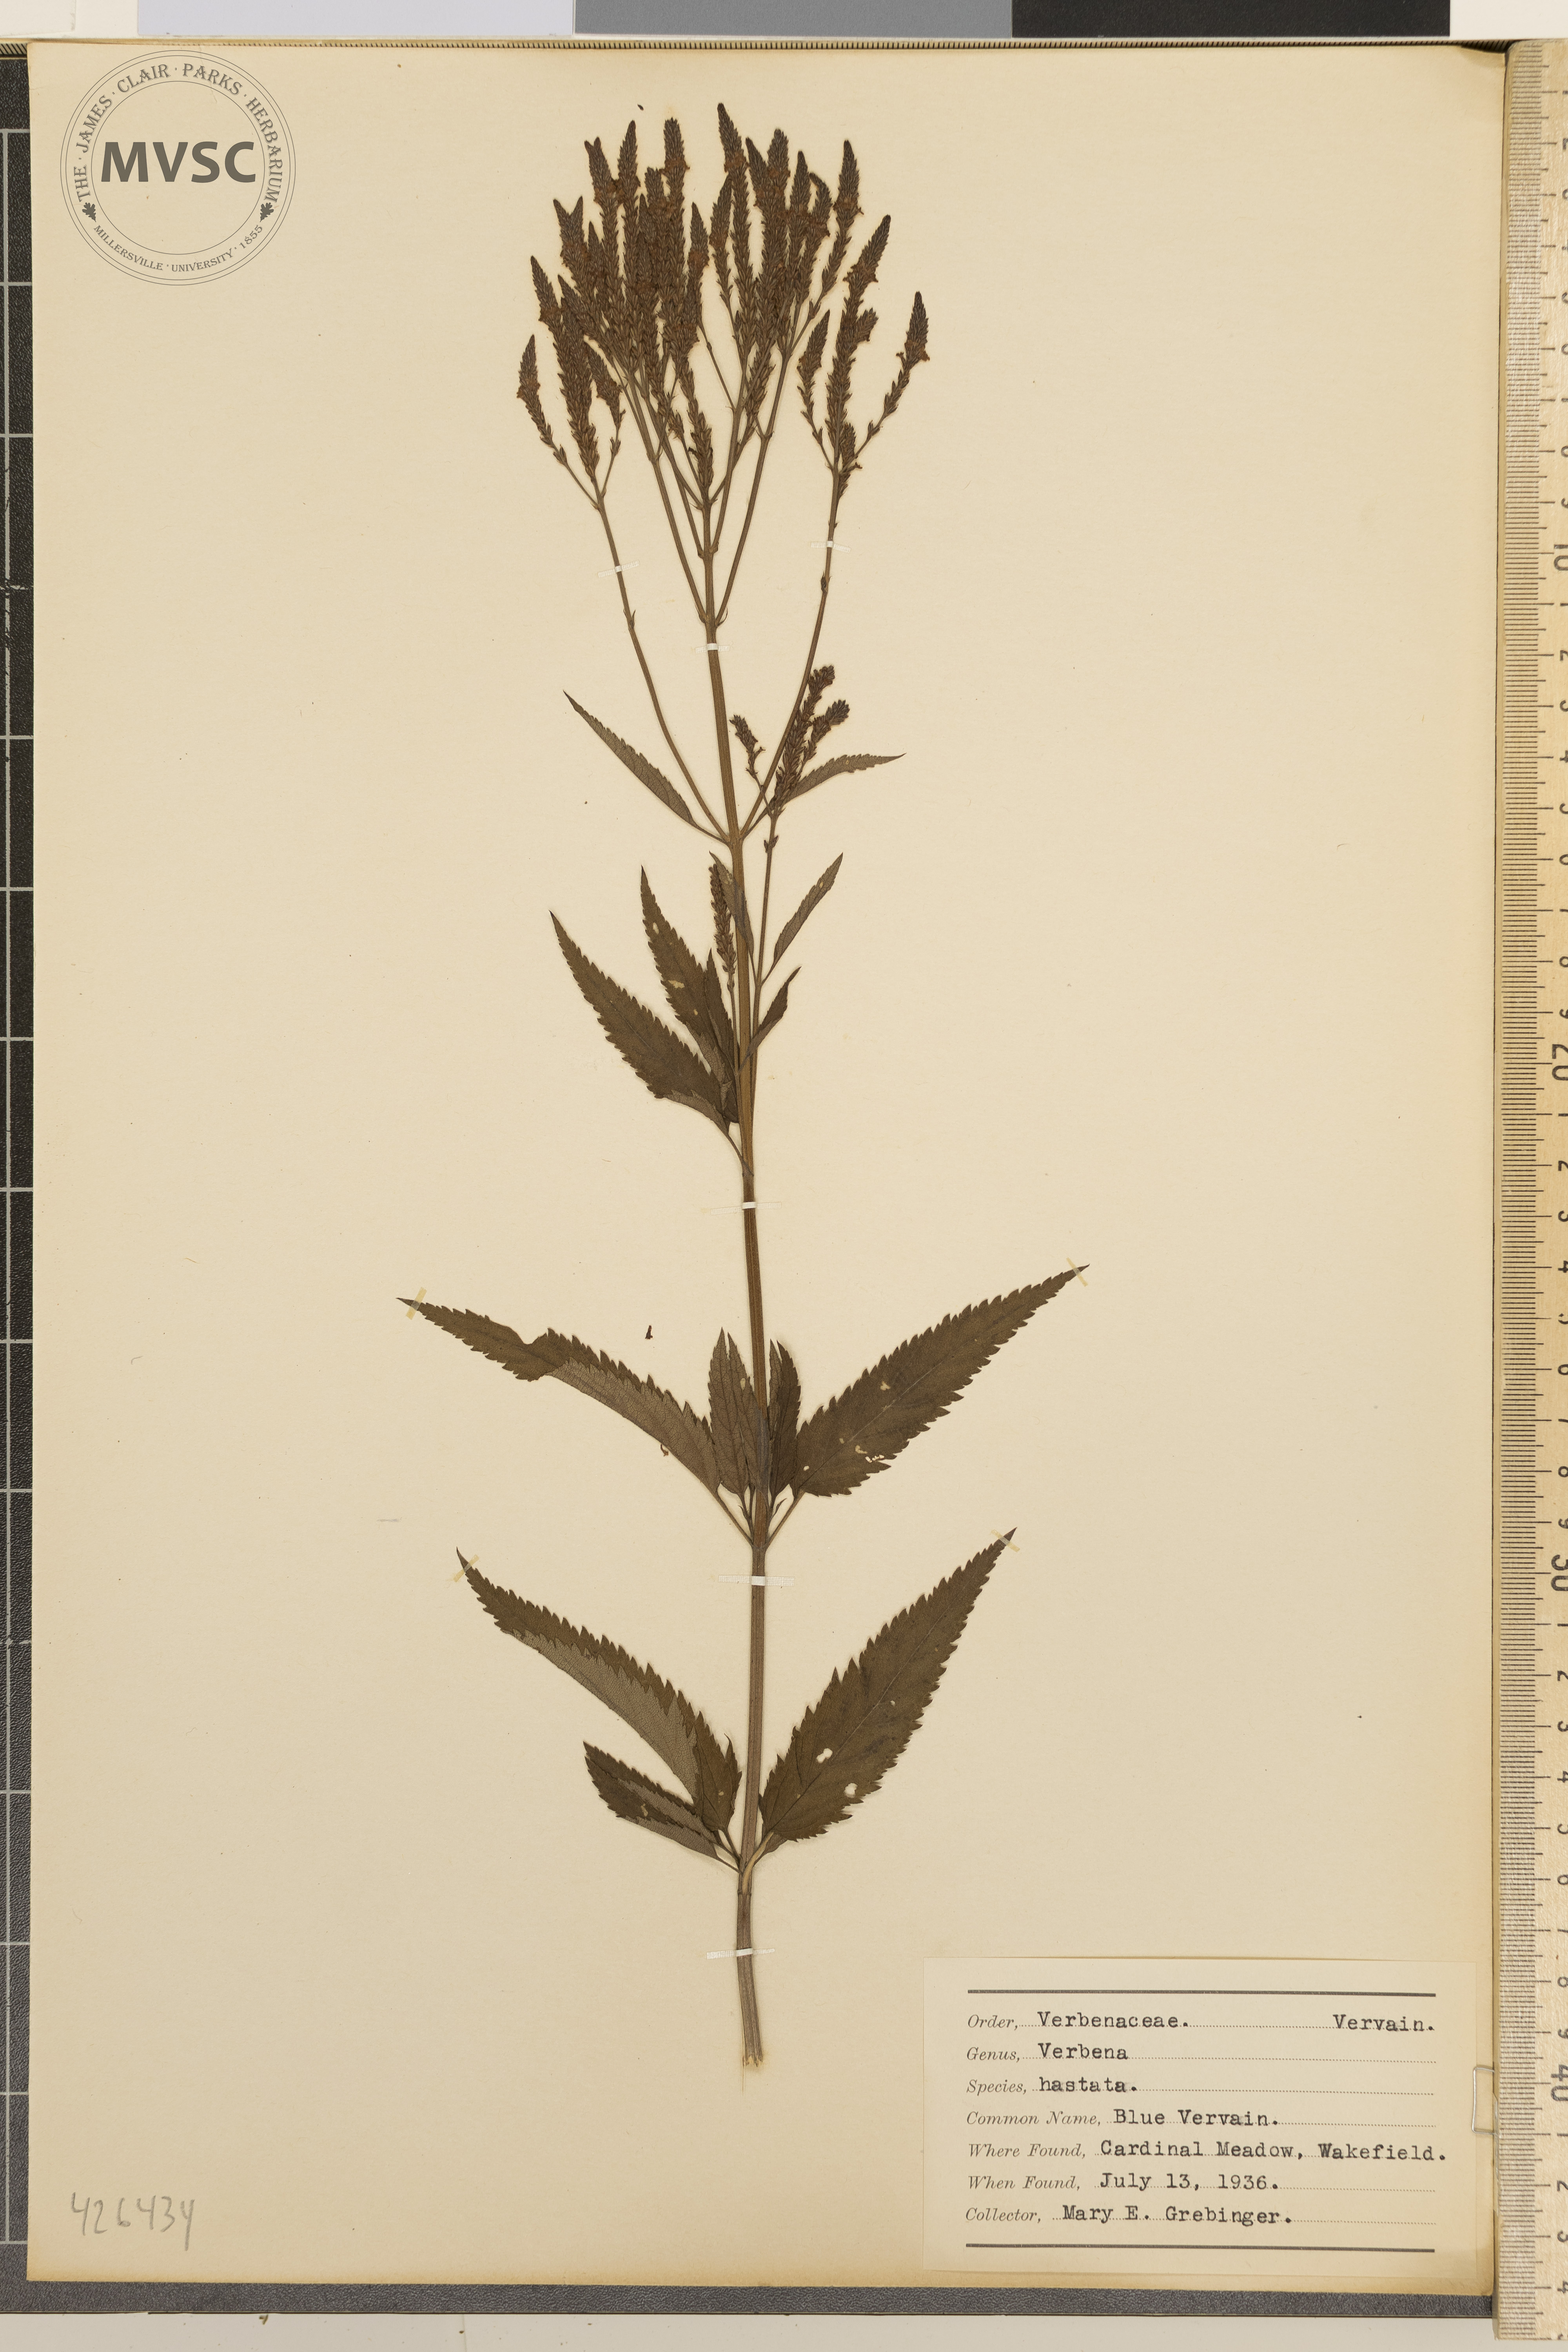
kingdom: Plantae
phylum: Tracheophyta
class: Magnoliopsida
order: Lamiales
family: Verbenaceae
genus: Verbena
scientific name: Verbena hastata
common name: Blue Vervain
